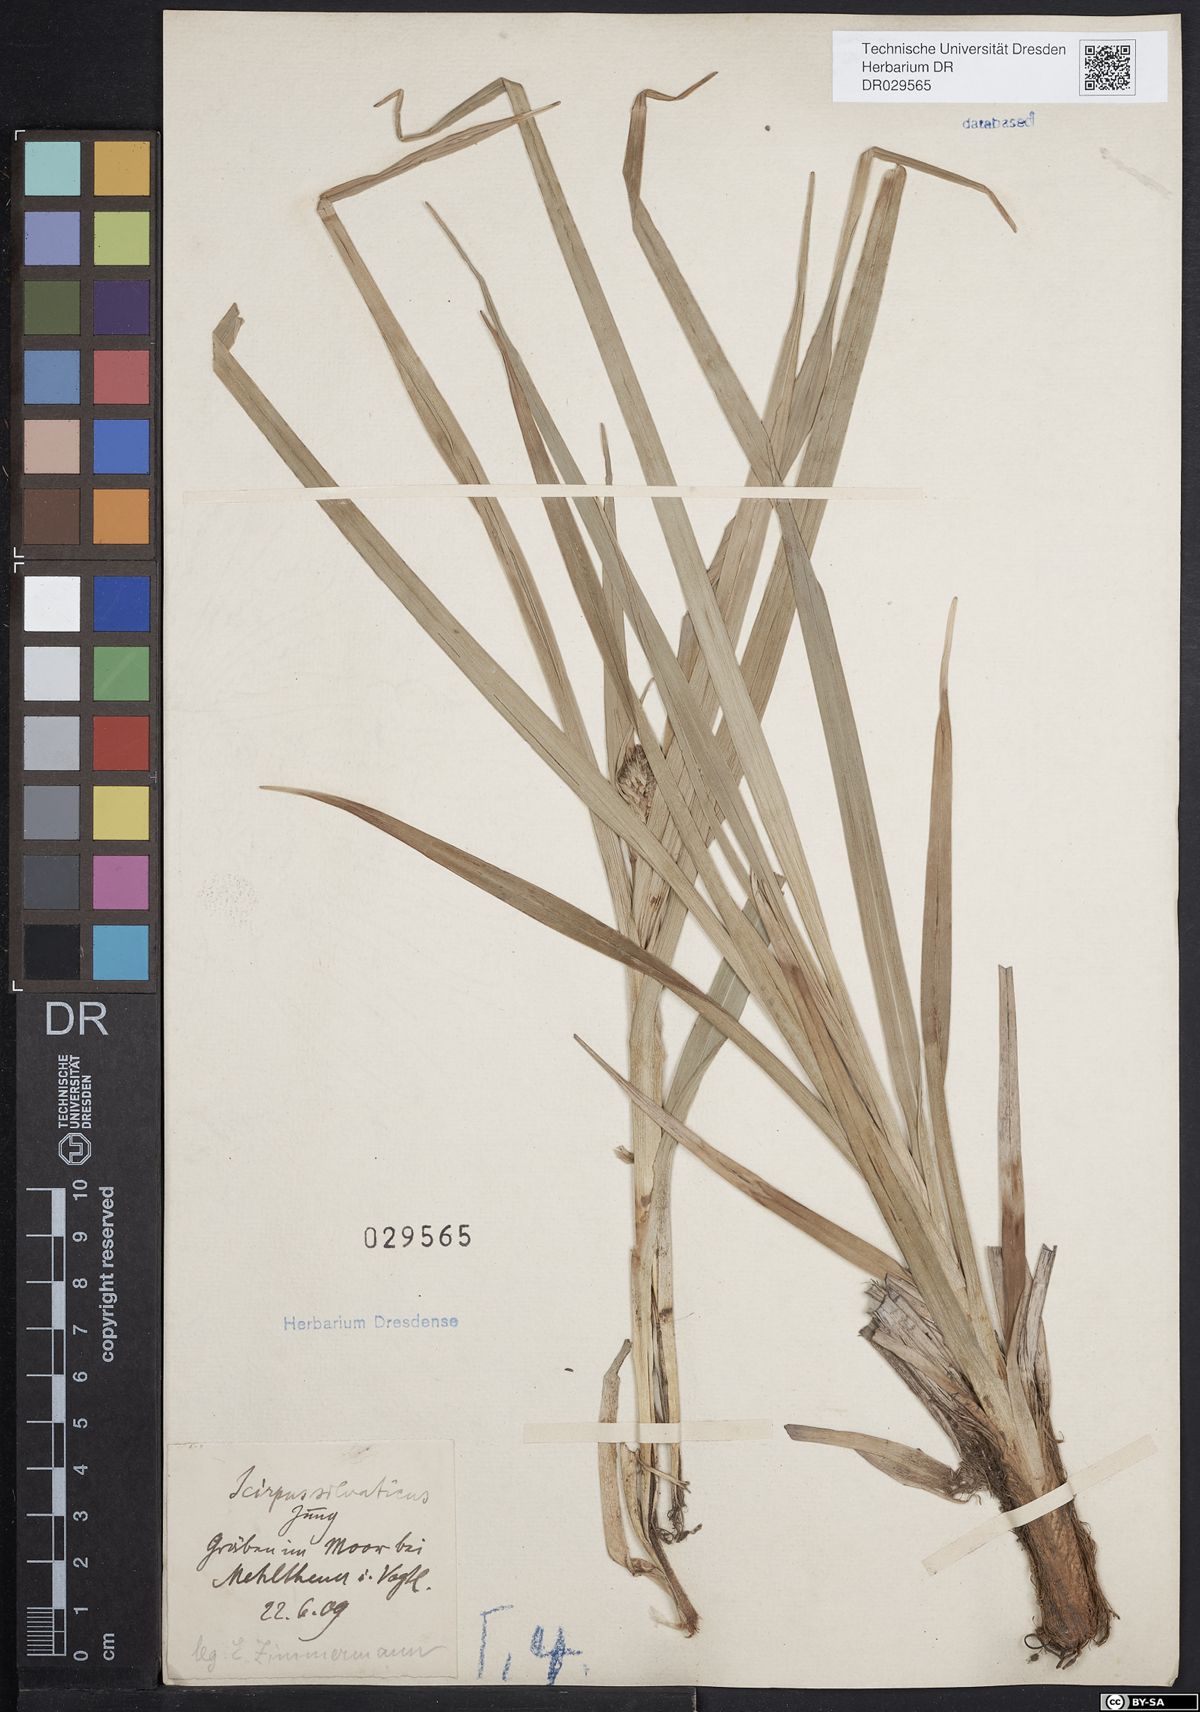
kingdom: Plantae
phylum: Tracheophyta
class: Liliopsida
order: Poales
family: Cyperaceae
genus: Scirpus
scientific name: Scirpus sylvaticus
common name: Wood club-rush
